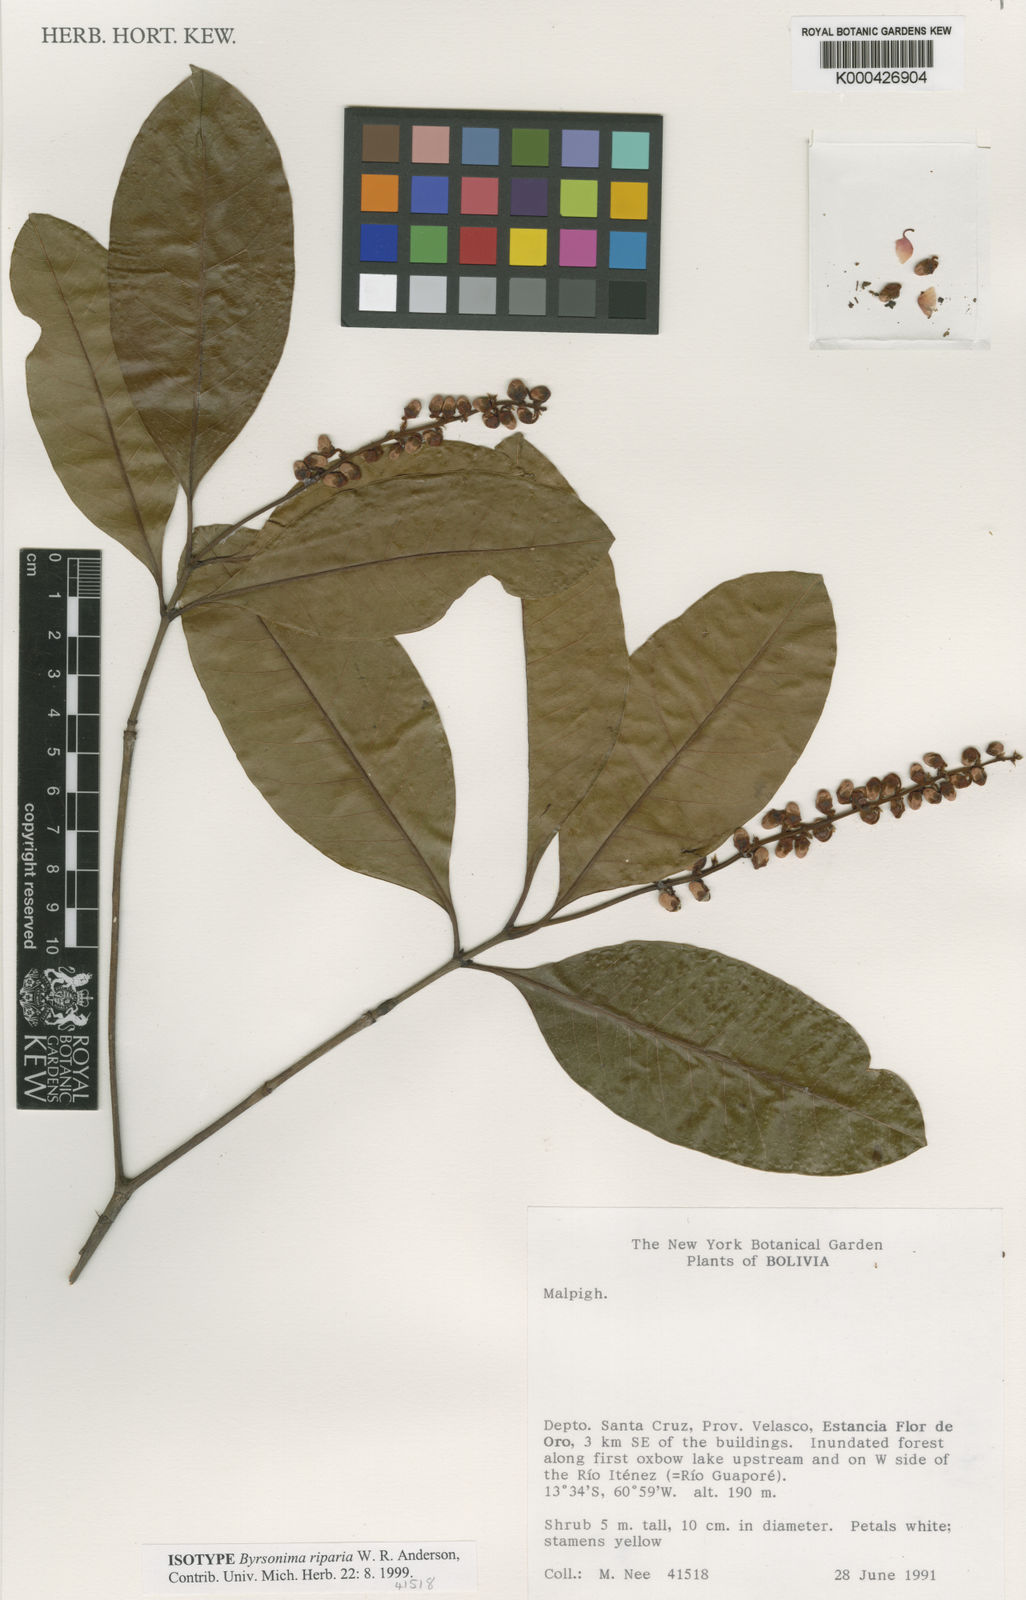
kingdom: Plantae
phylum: Tracheophyta
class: Magnoliopsida
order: Malpighiales
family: Malpighiaceae
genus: Byrsonima
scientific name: Byrsonima riparia
